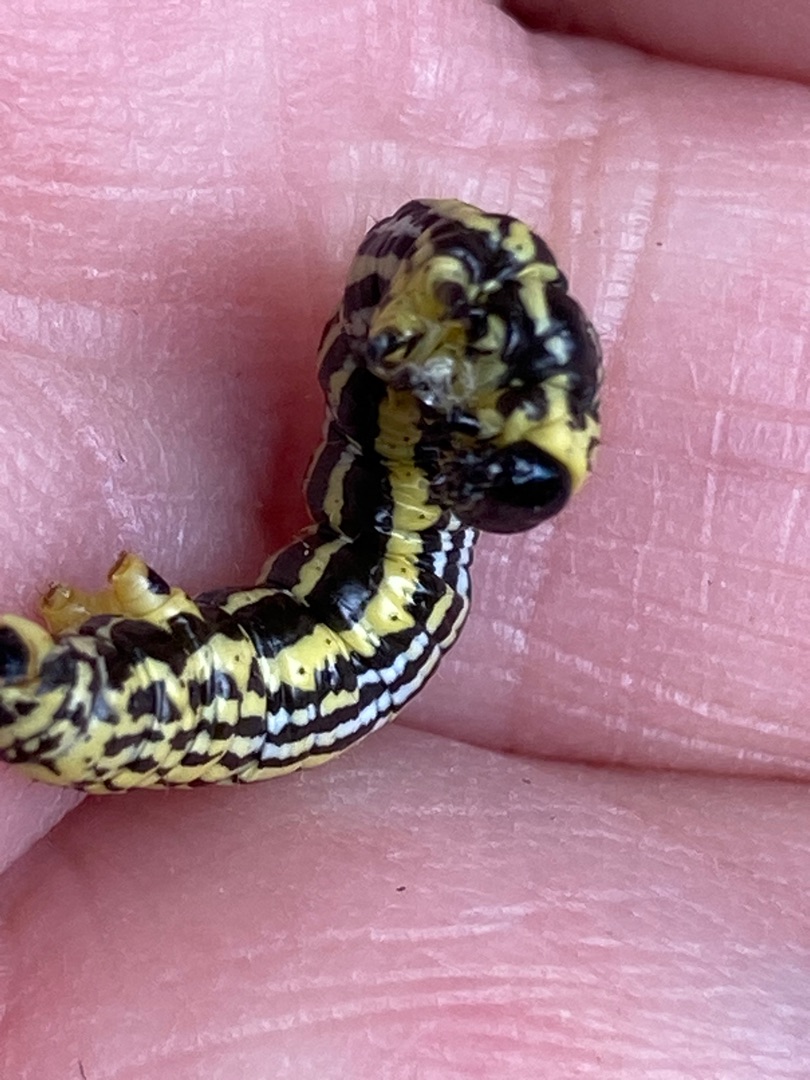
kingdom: Animalia
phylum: Arthropoda
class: Insecta
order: Lepidoptera
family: Geometridae
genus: Abraxas
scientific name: Abraxas sylvata
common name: Elmemåler
